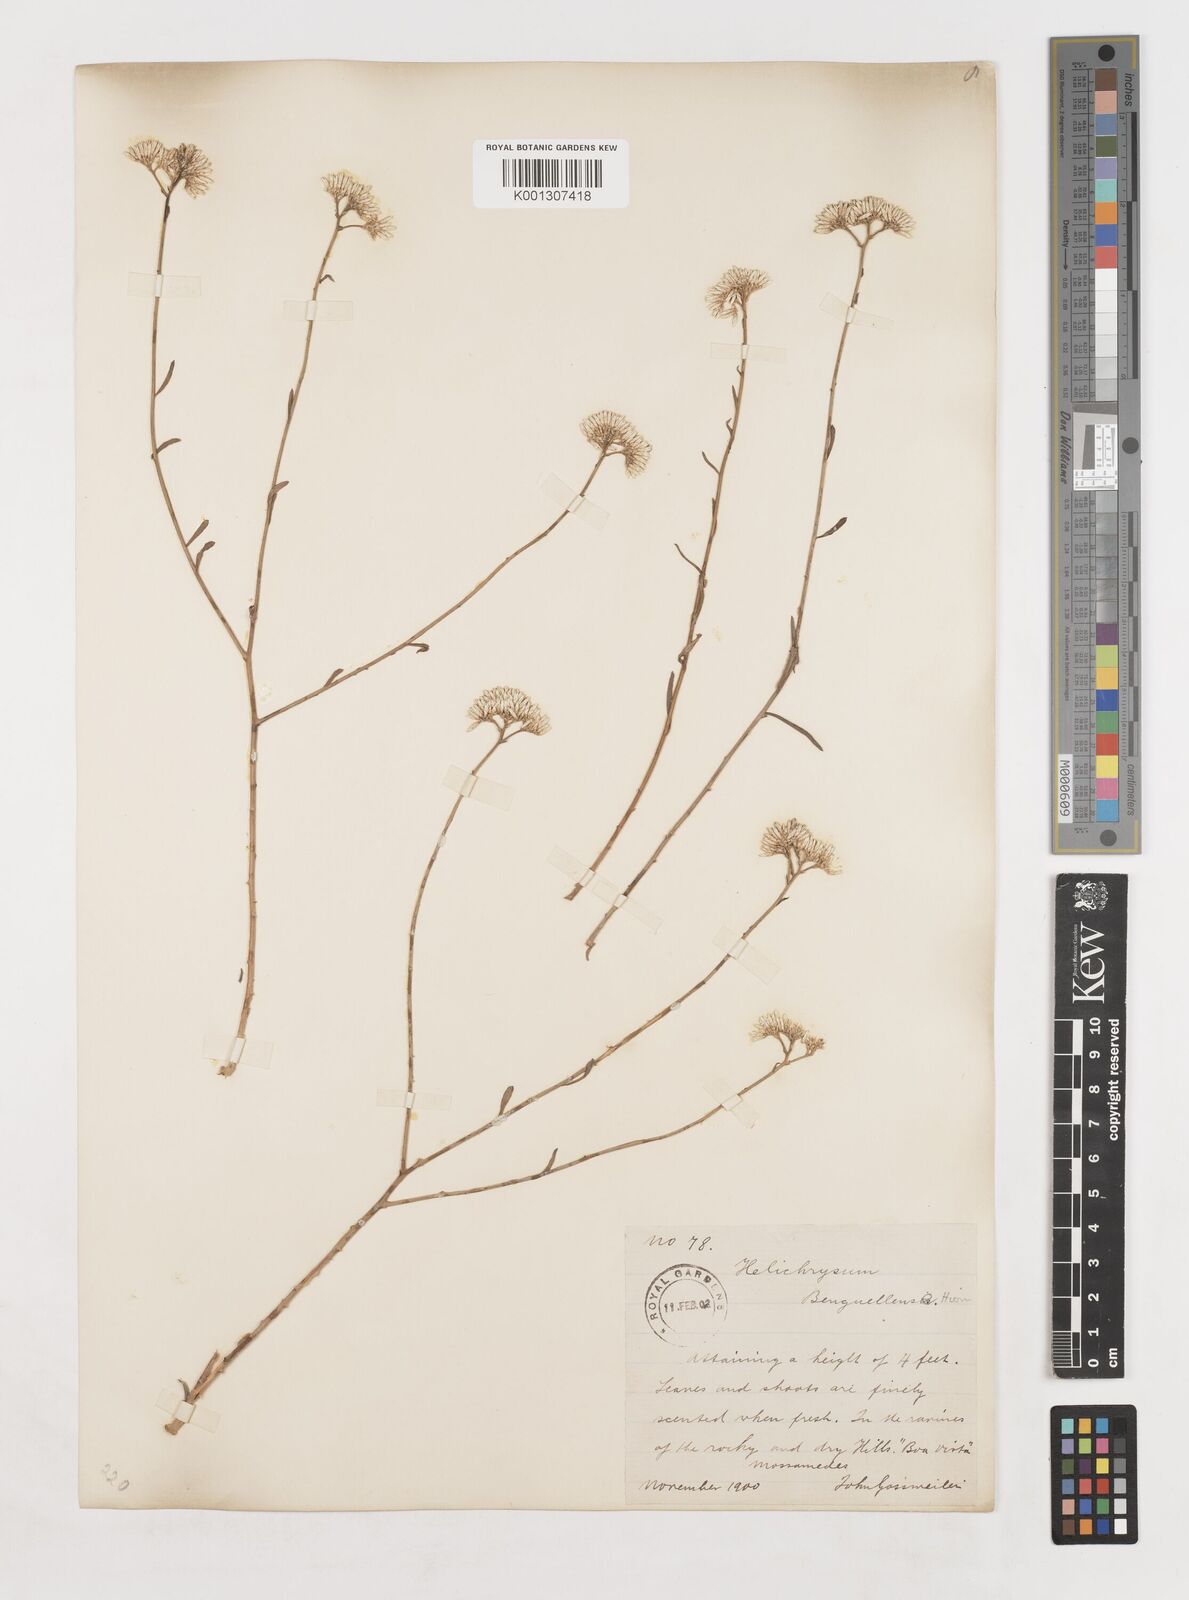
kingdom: Plantae
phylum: Tracheophyta
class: Magnoliopsida
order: Asterales
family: Asteraceae
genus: Helichrysum
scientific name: Helichrysum benguellense
